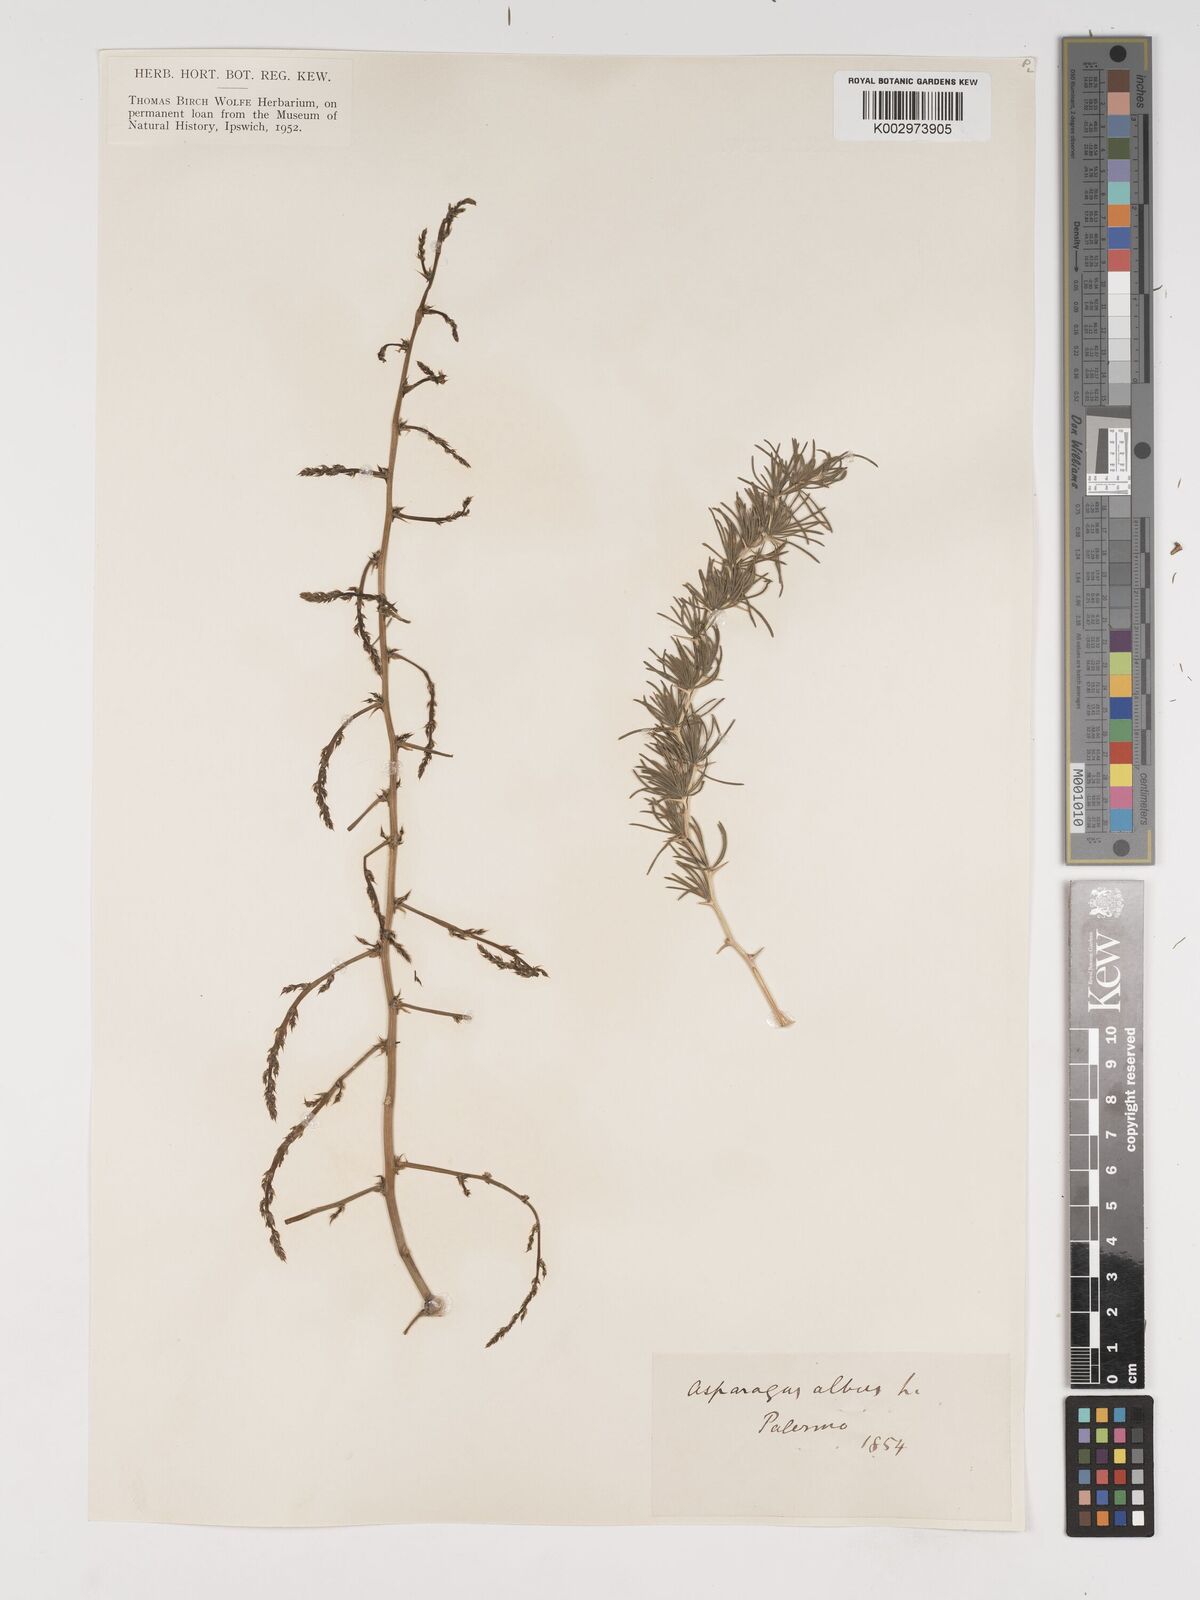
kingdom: Plantae
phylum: Tracheophyta
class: Liliopsida
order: Asparagales
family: Asparagaceae
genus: Asparagus
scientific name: Asparagus albus
